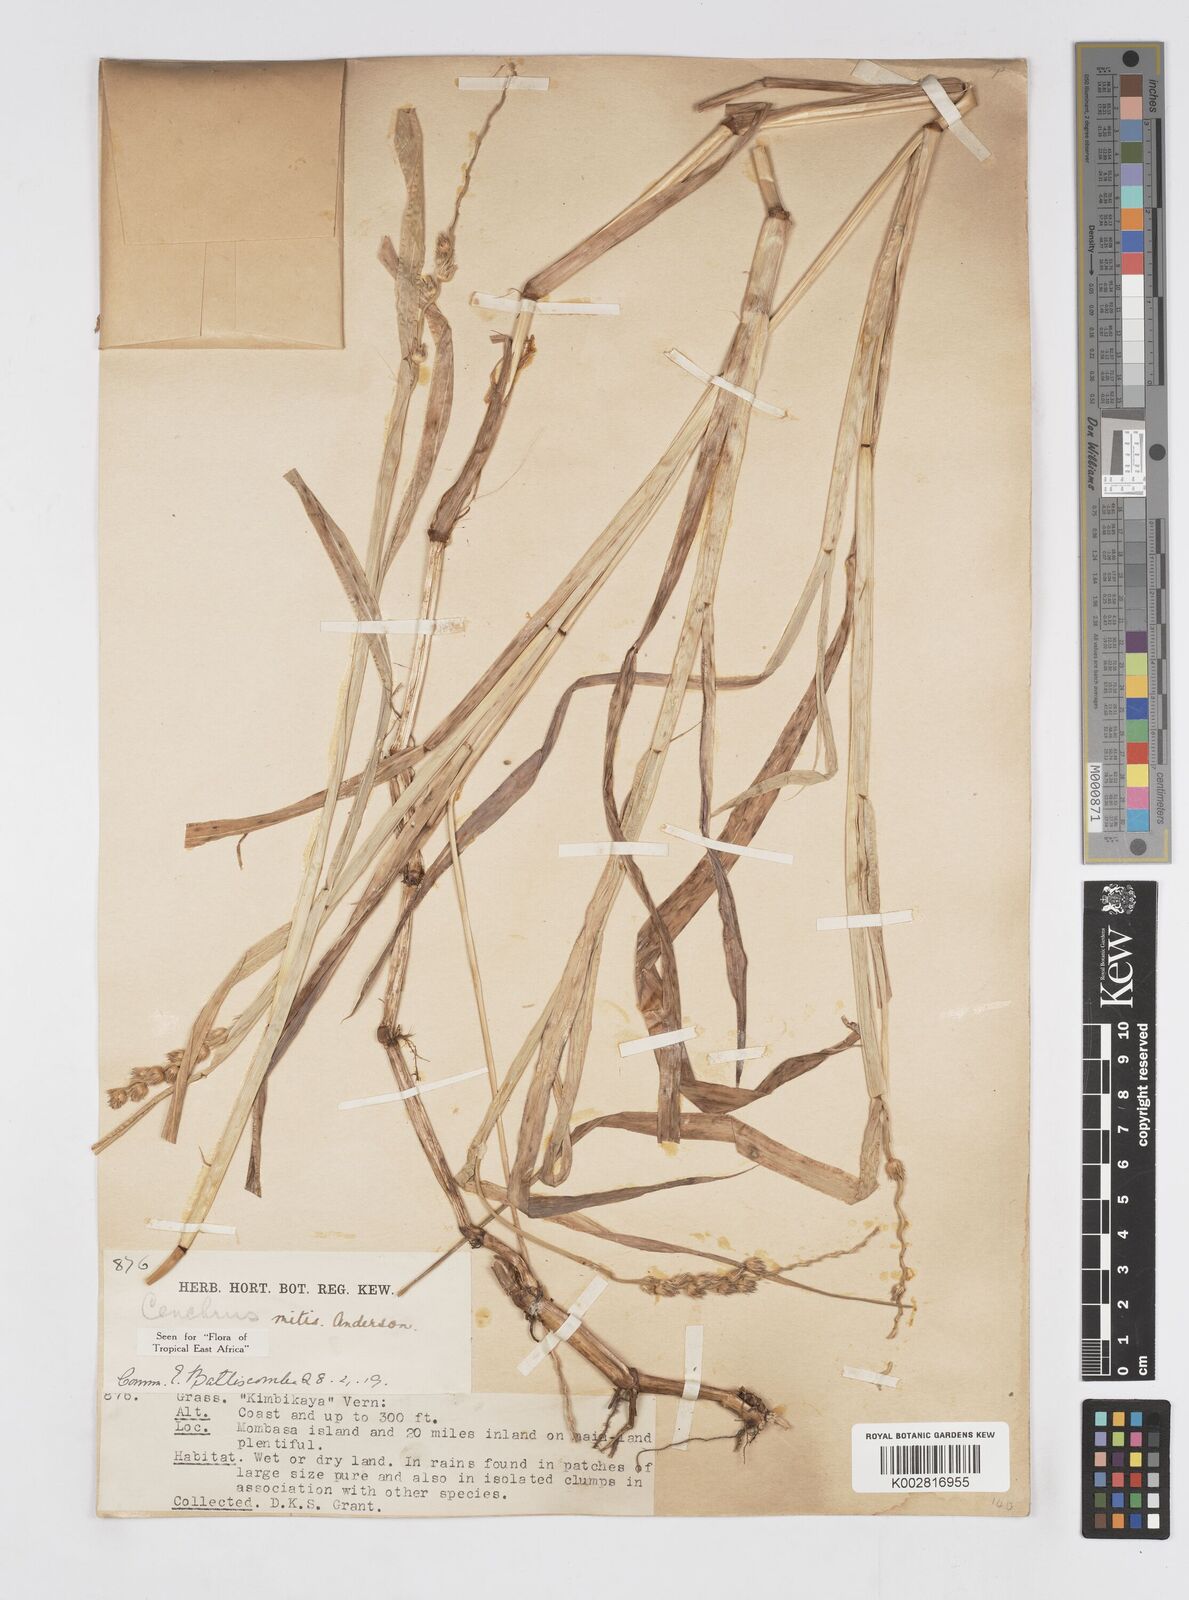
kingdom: Plantae
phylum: Tracheophyta
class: Liliopsida
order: Poales
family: Poaceae
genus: Cenchrus
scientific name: Cenchrus mitis
